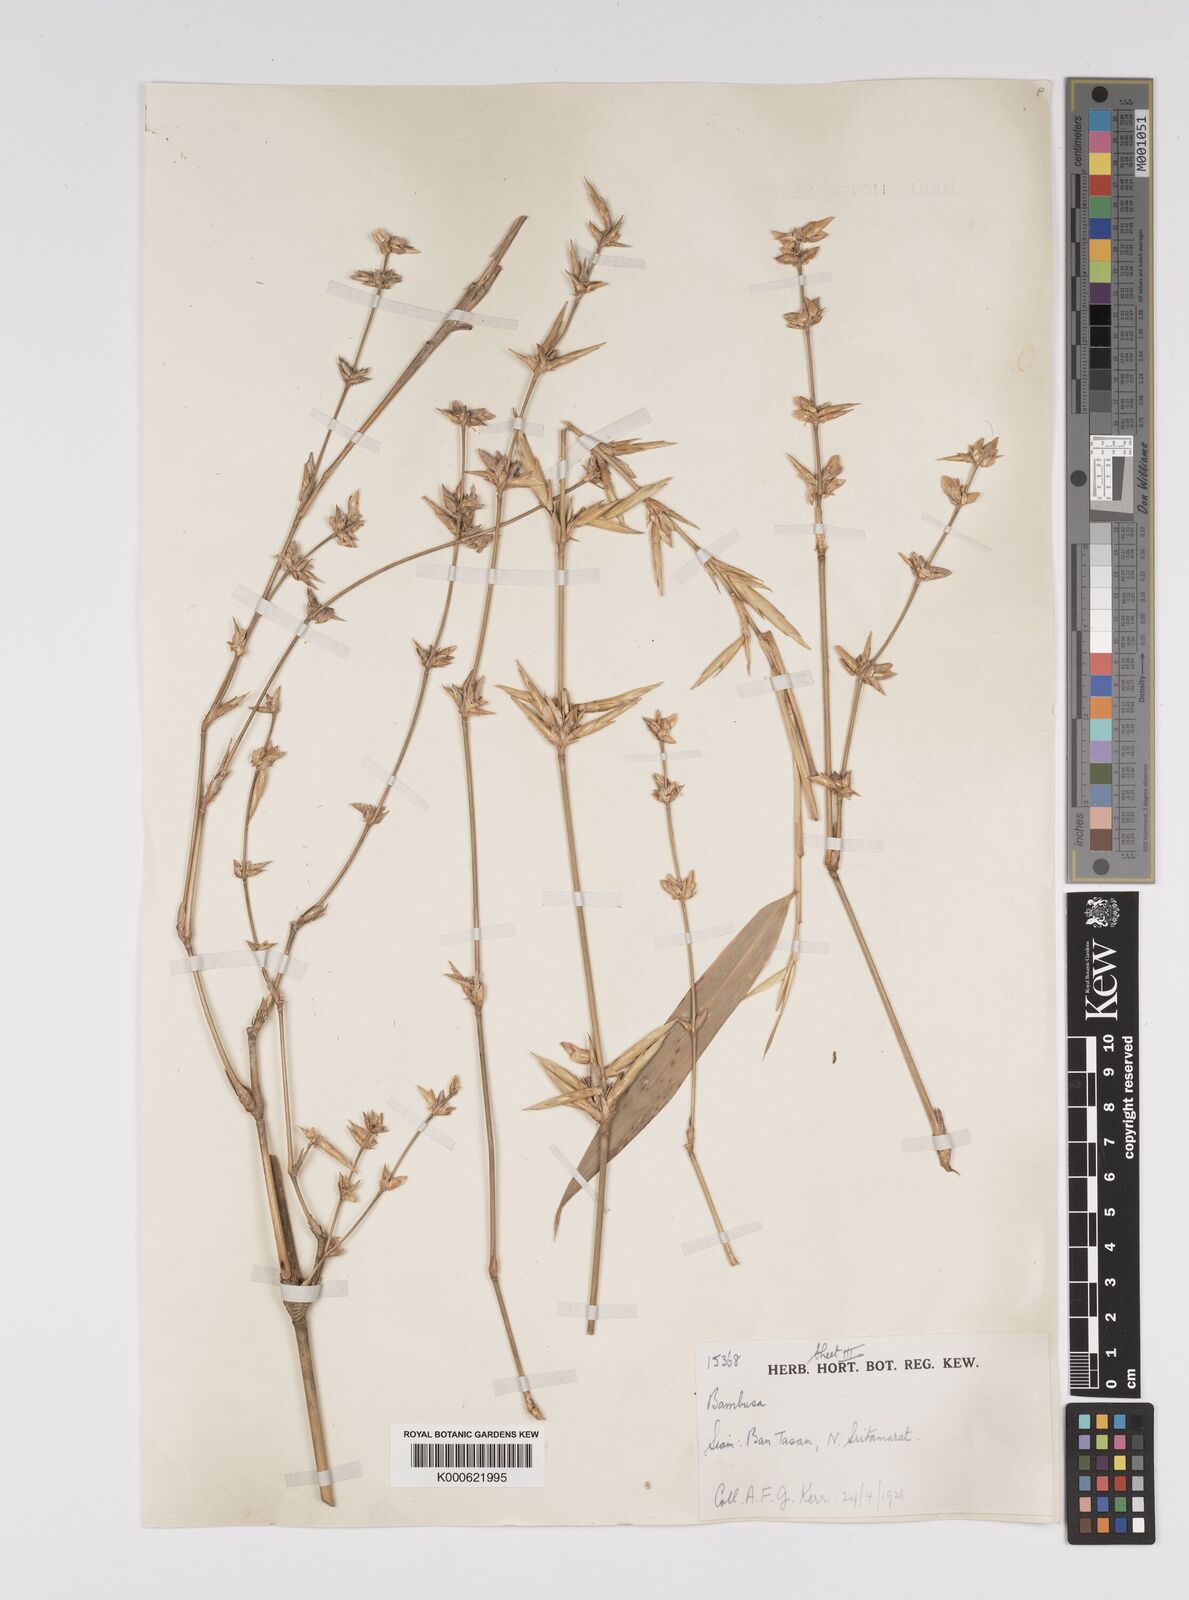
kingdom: Plantae
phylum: Tracheophyta
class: Liliopsida
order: Poales
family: Poaceae
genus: Bambusa
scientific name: Bambusa
